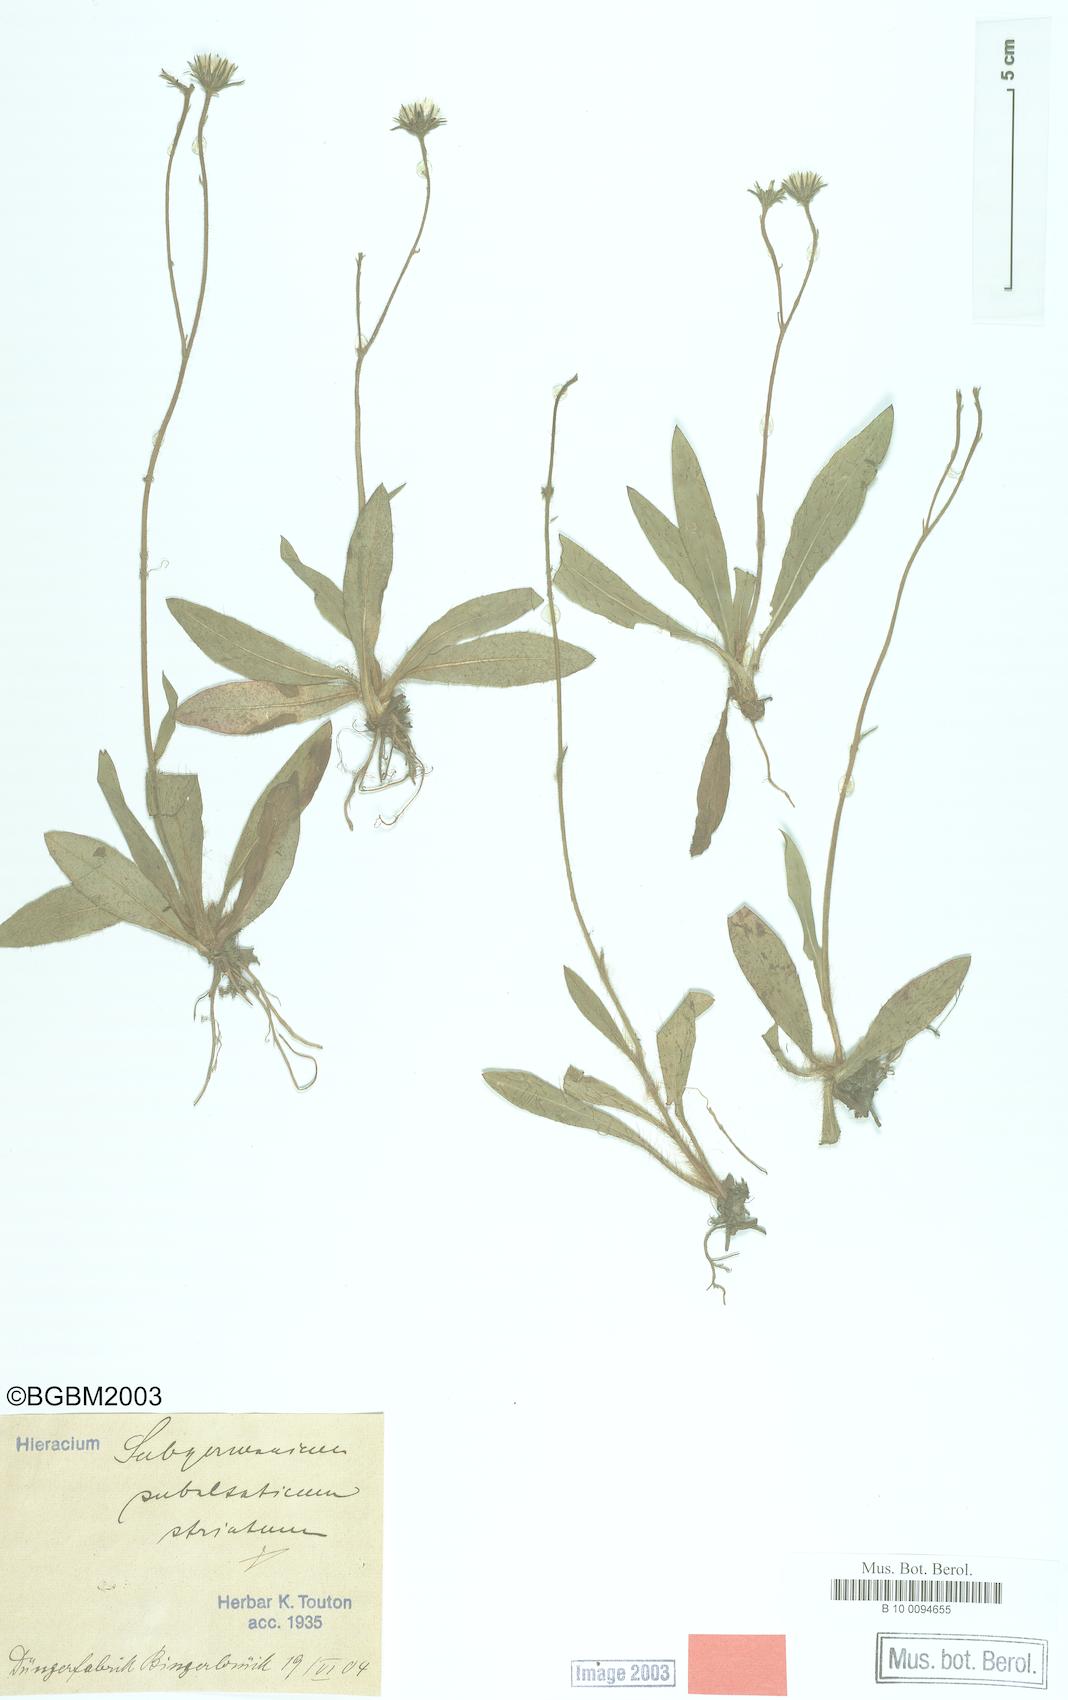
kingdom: Plantae
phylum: Tracheophyta
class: Magnoliopsida
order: Asterales
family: Asteraceae
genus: Pilosella
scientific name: Pilosella pilosellina
